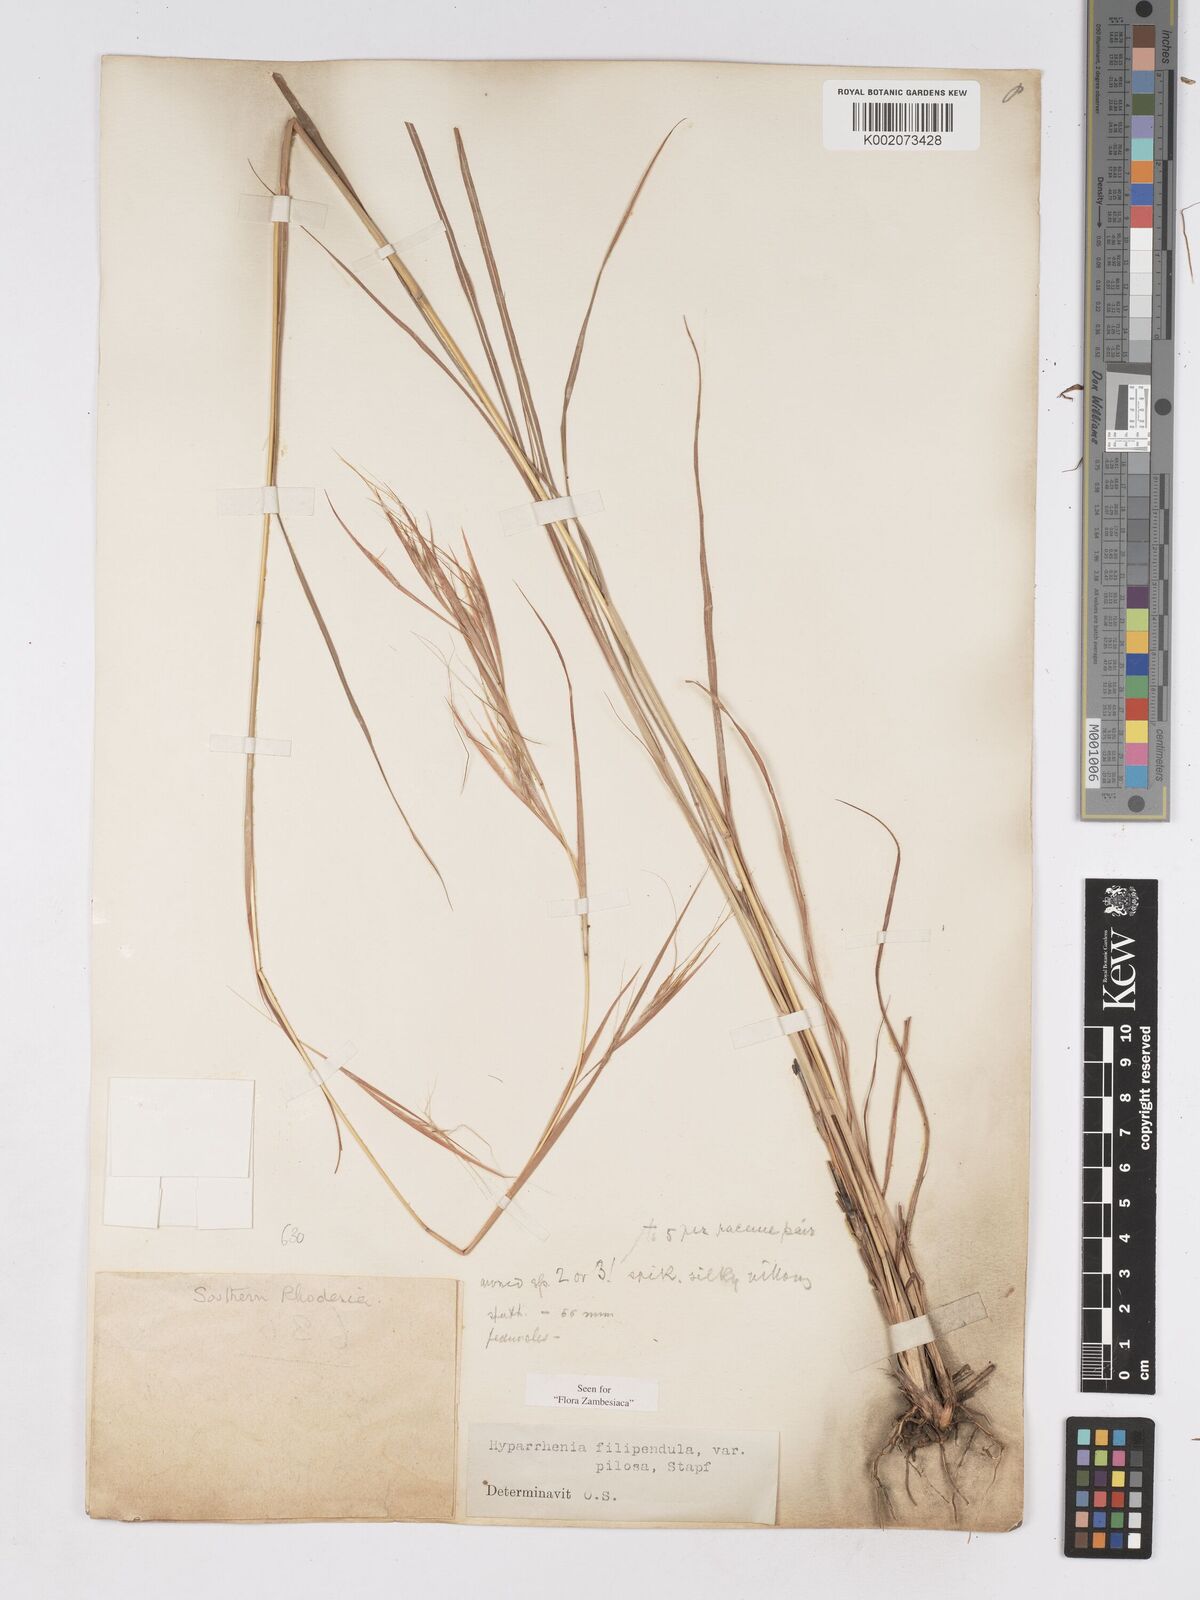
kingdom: Plantae
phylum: Tracheophyta
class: Liliopsida
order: Poales
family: Poaceae
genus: Hyparrhenia
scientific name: Hyparrhenia filipendula
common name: Tambookie grass
